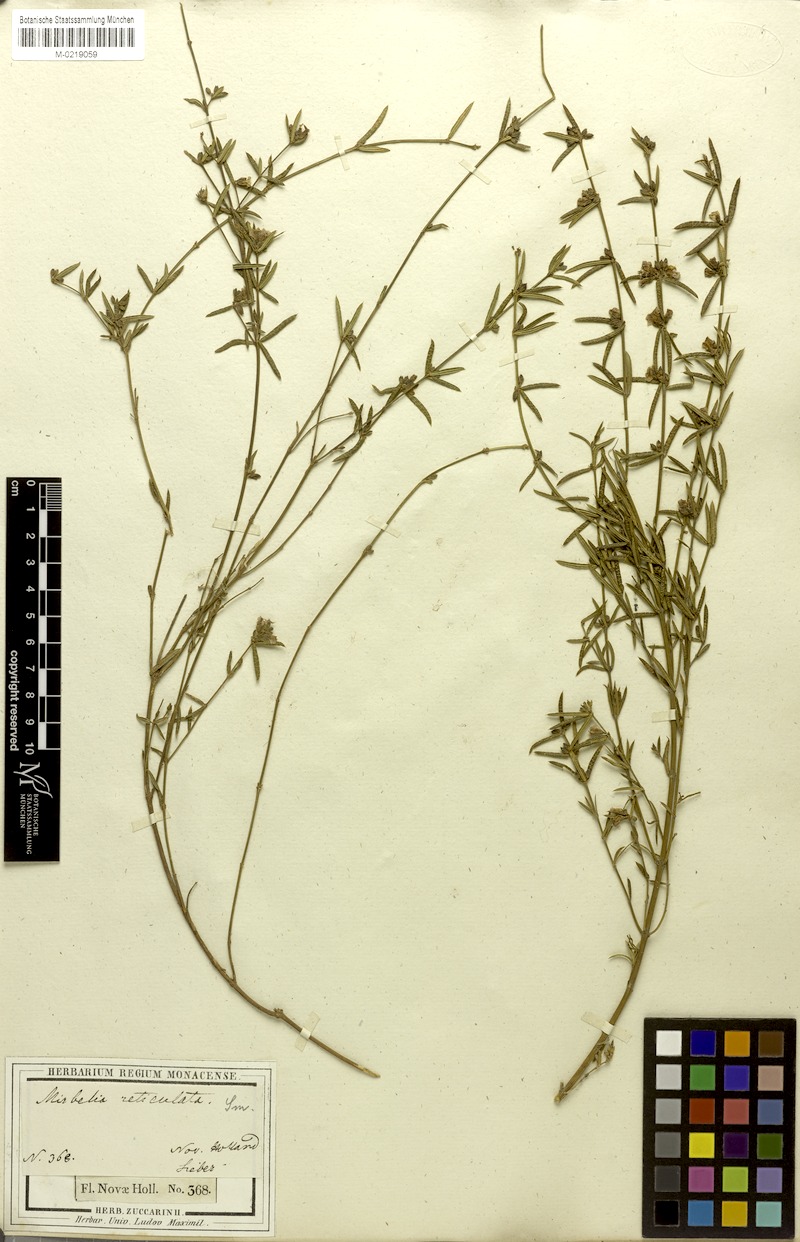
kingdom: Plantae
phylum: Tracheophyta
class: Magnoliopsida
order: Fabales
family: Fabaceae
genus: Mirbelia
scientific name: Mirbelia rubiifolia
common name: Heathy mirbelia
